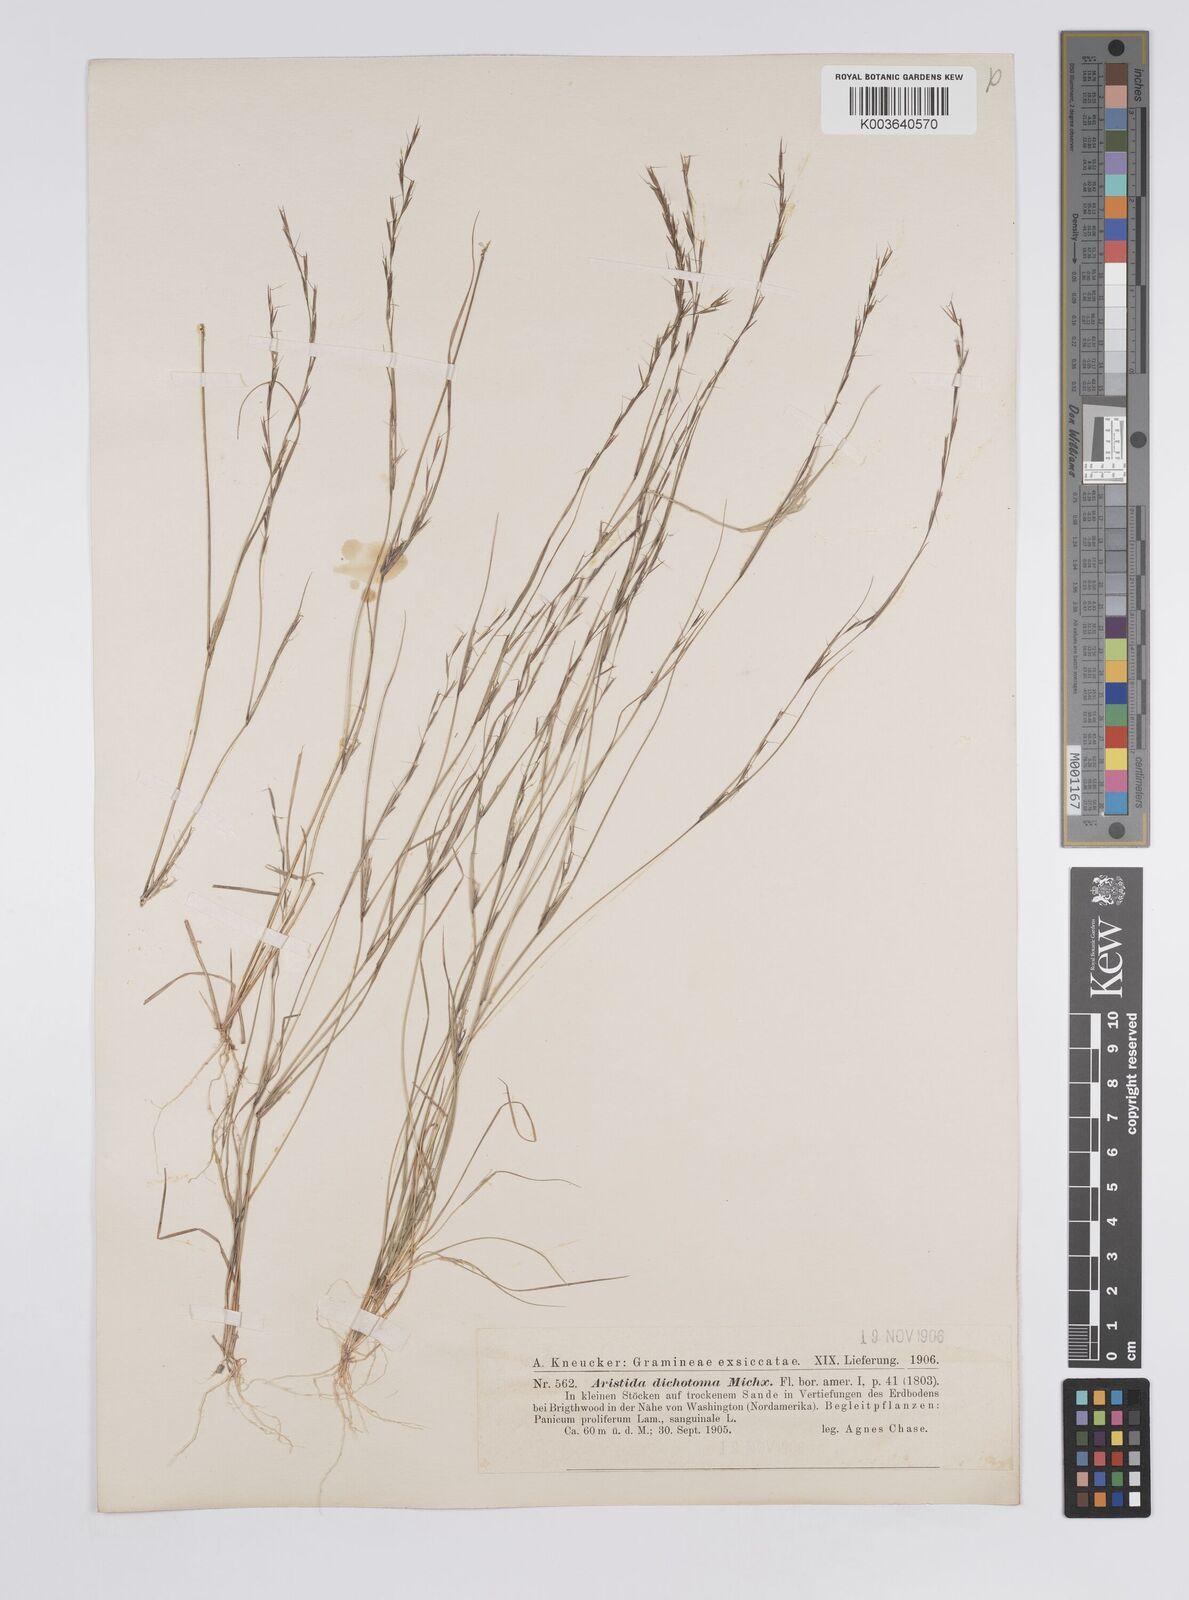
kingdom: Plantae
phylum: Tracheophyta
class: Liliopsida
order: Poales
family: Poaceae
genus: Aristida
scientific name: Aristida dichotoma
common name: Churchmouse three-awn
